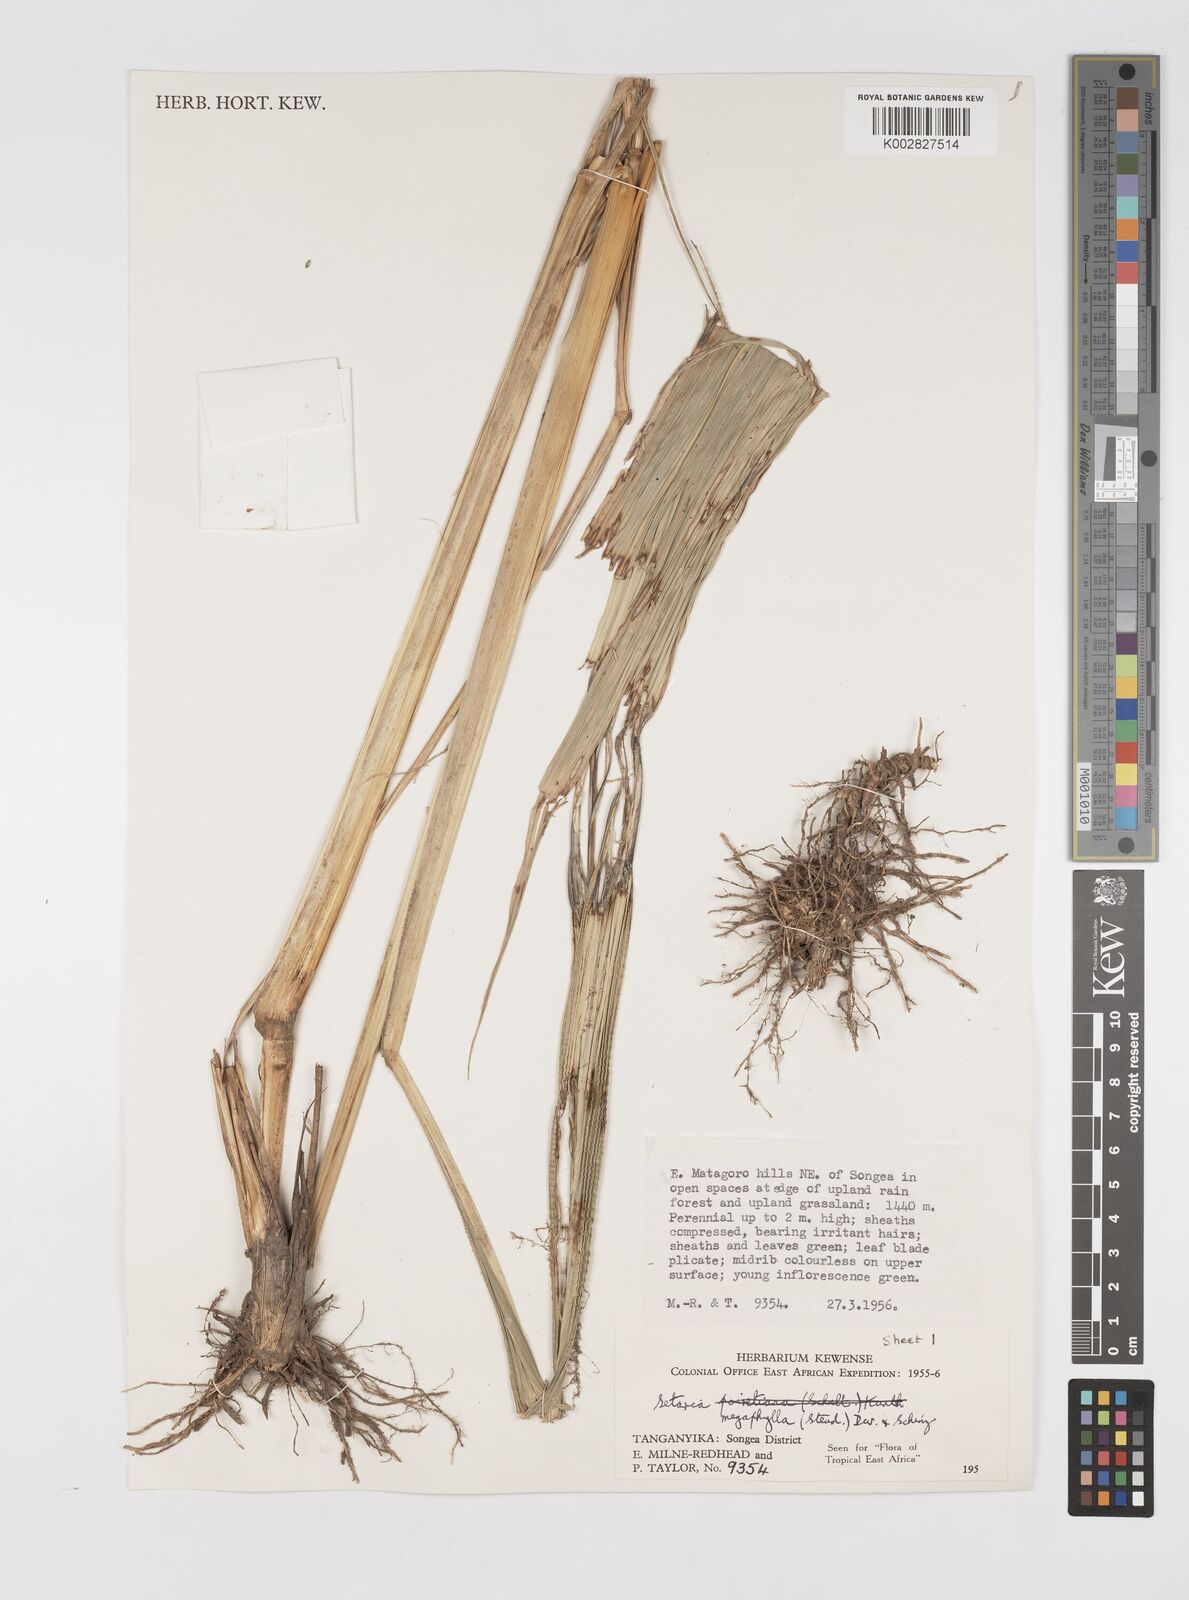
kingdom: Plantae
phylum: Tracheophyta
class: Liliopsida
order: Poales
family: Poaceae
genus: Setaria
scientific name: Setaria megaphylla
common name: Bigleaf bristlegrass
